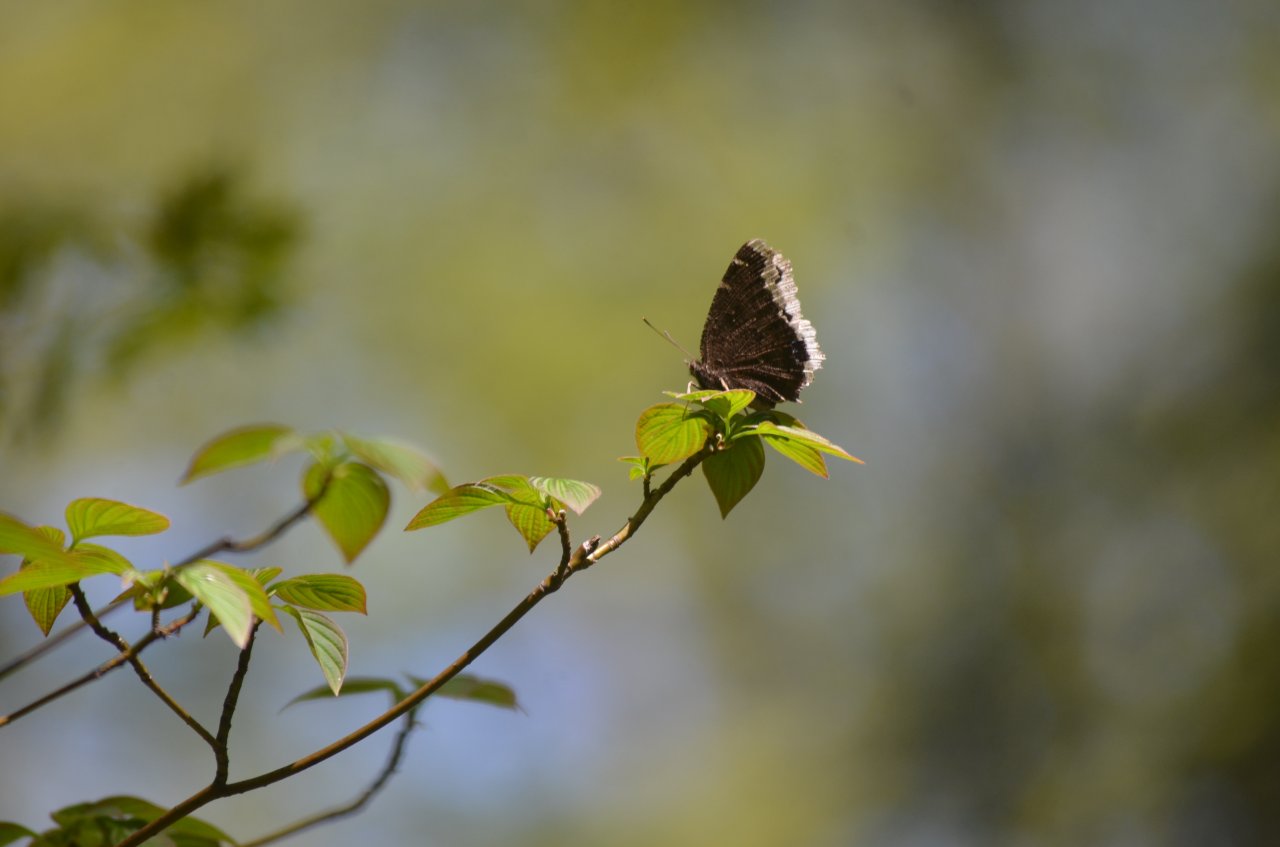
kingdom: Animalia
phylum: Arthropoda
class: Insecta
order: Lepidoptera
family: Nymphalidae
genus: Nymphalis
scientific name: Nymphalis antiopa
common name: Mourning Cloak
